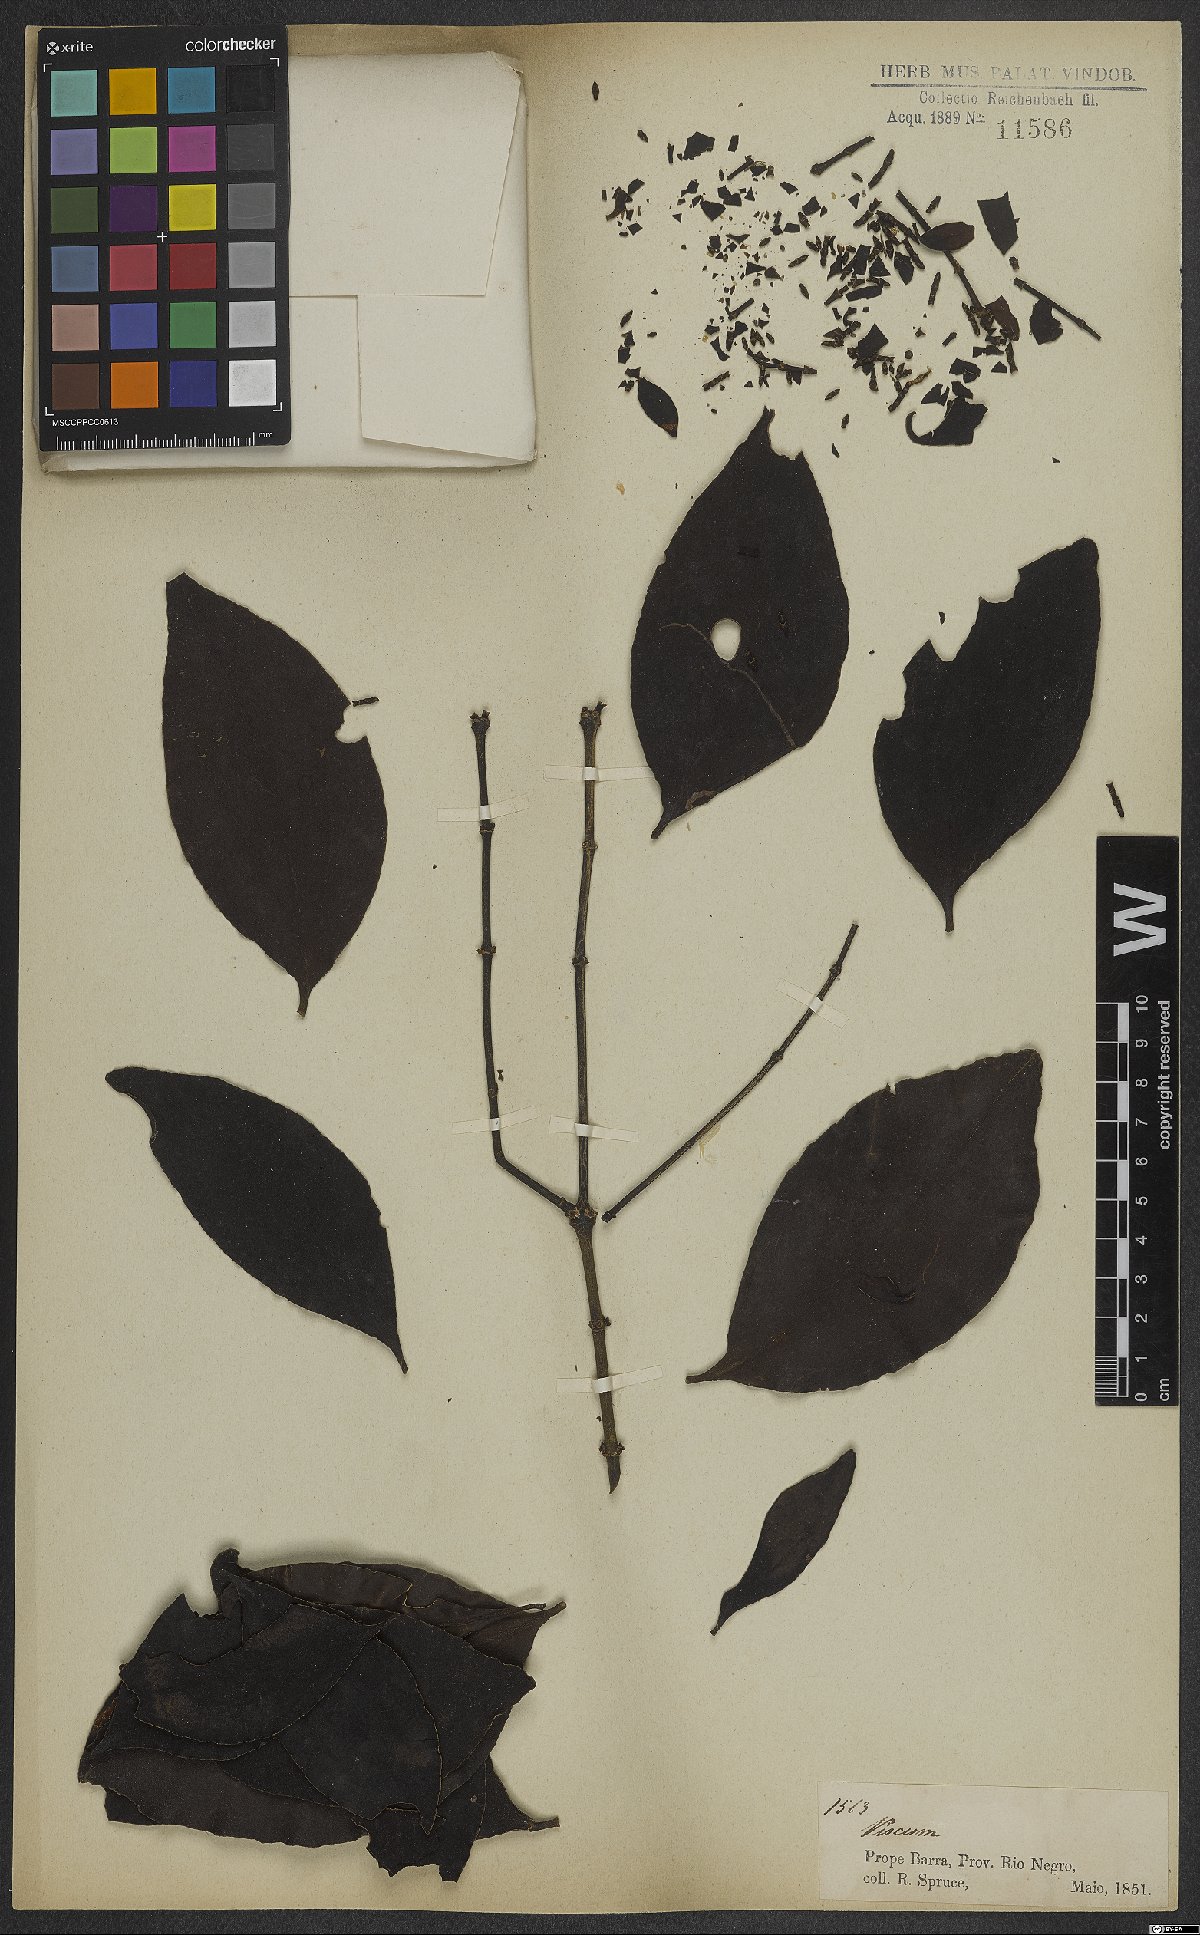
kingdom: Plantae
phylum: Tracheophyta
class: Magnoliopsida
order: Santalales
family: Viscaceae
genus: Viscum
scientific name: Viscum
